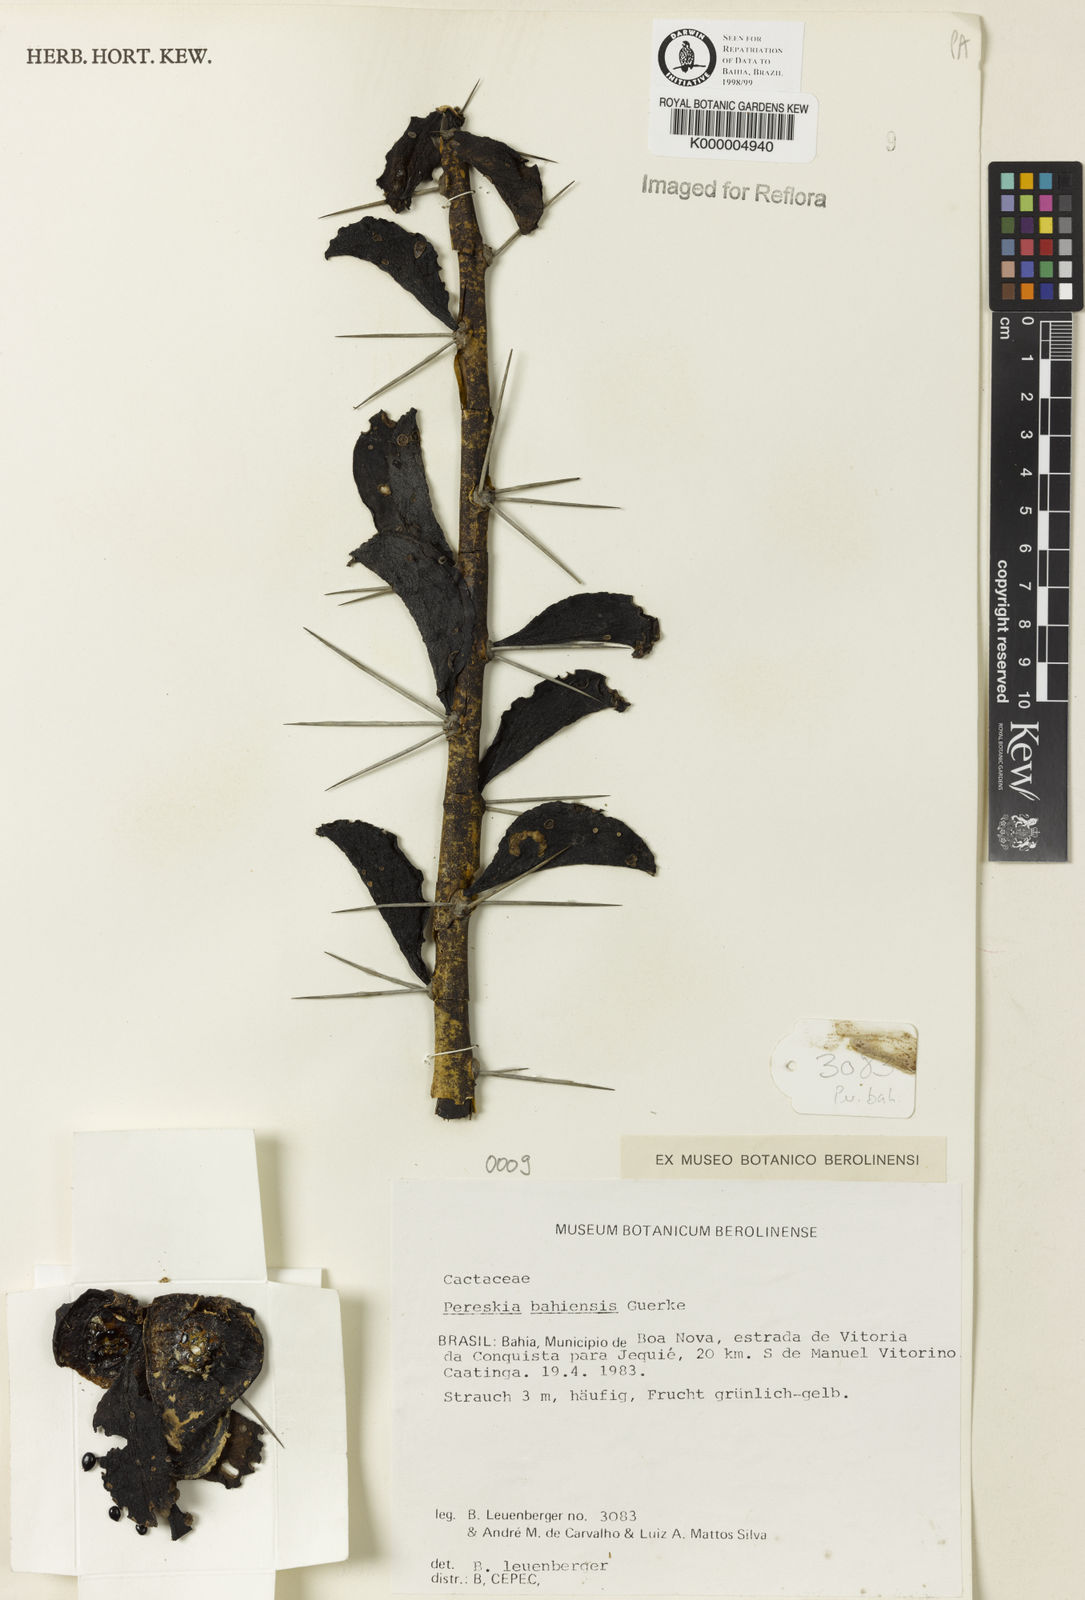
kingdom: Plantae
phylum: Tracheophyta
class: Magnoliopsida
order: Caryophyllales
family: Cactaceae
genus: Pereskia
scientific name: Pereskia
